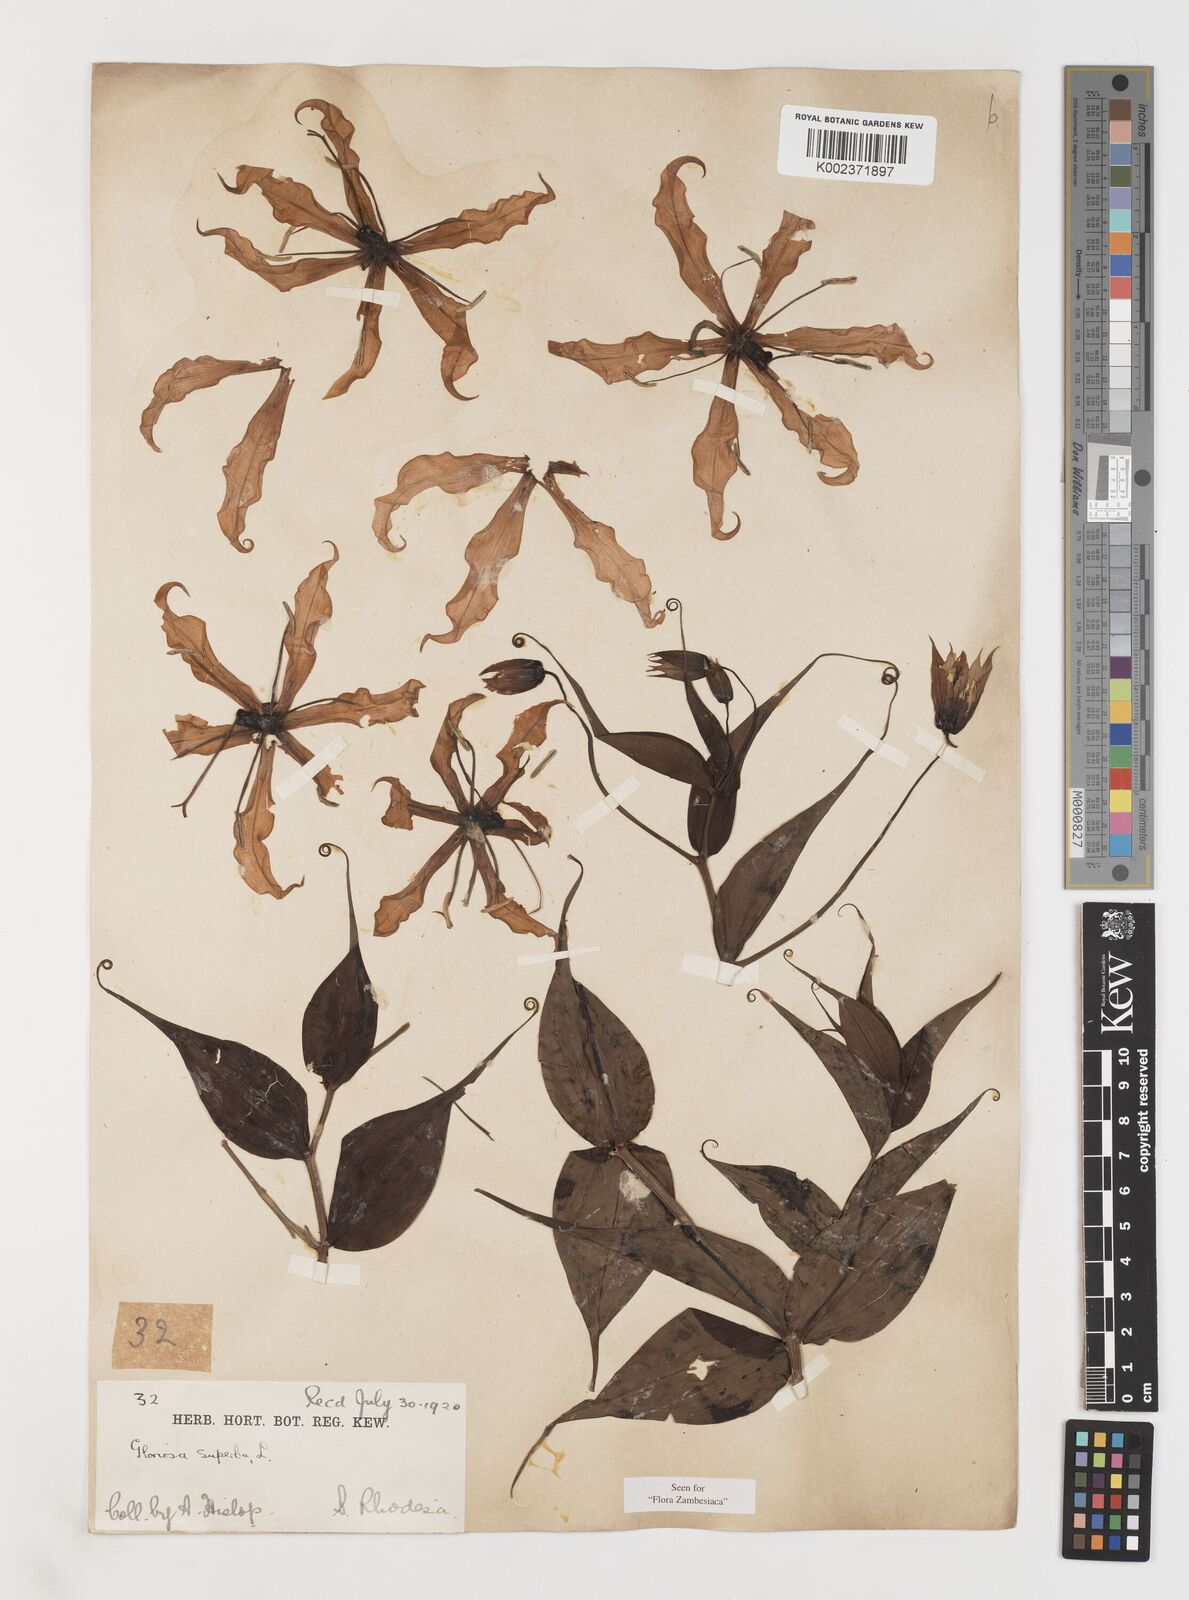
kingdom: Plantae
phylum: Tracheophyta
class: Liliopsida
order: Liliales
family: Colchicaceae
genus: Gloriosa
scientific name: Gloriosa simplex
